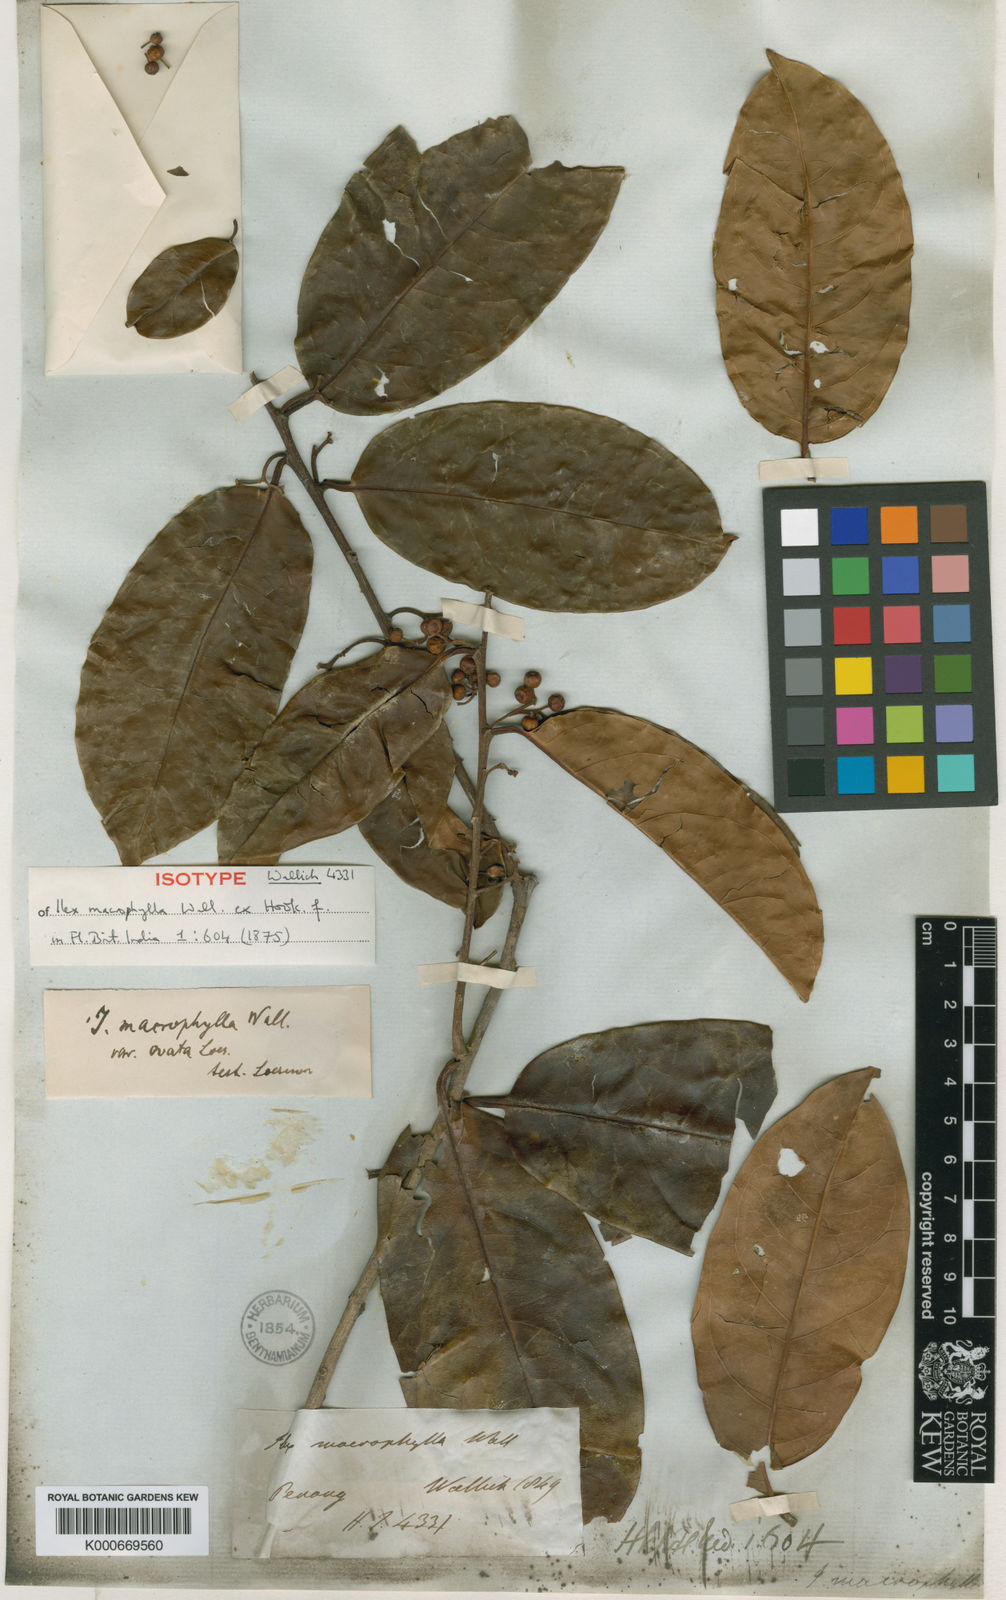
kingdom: Plantae
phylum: Tracheophyta
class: Magnoliopsida
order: Aquifoliales
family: Aquifoliaceae
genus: Ilex
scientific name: Ilex
